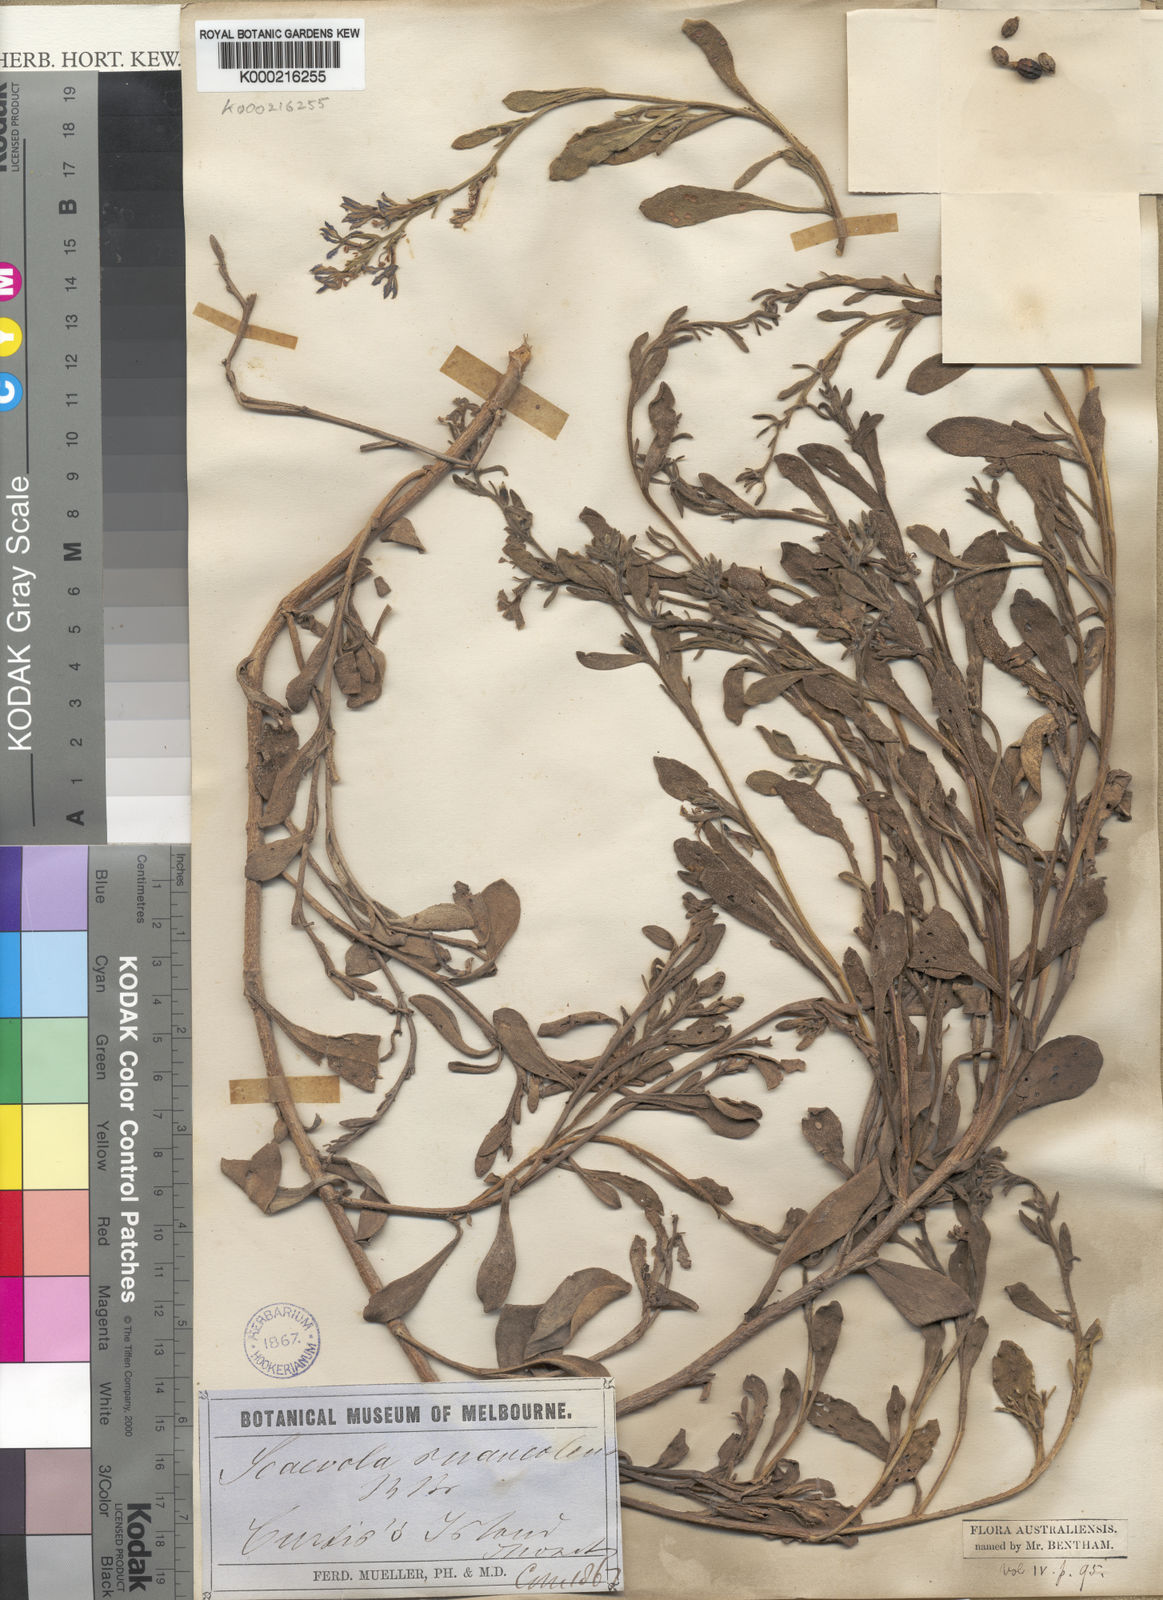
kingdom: Plantae
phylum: Tracheophyta
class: Magnoliopsida
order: Asterales
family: Goodeniaceae
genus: Scaevola
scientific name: Scaevola calendulacea
